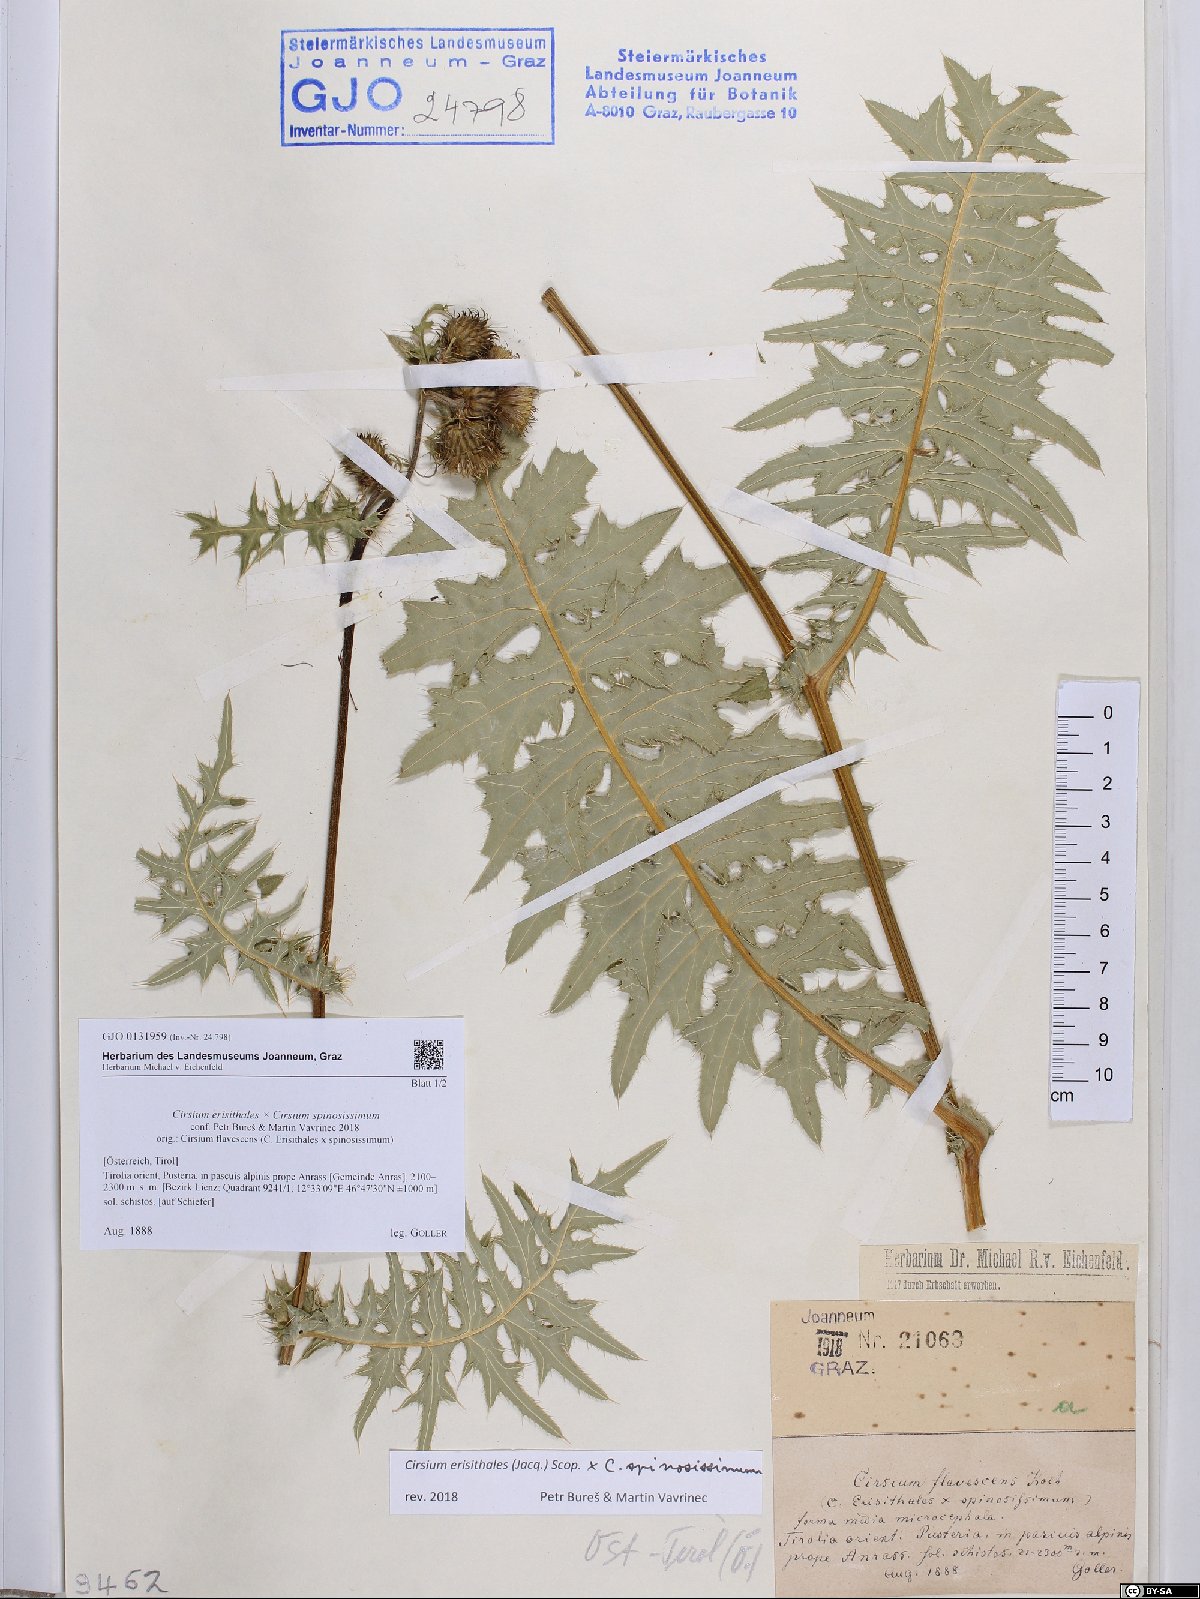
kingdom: Plantae
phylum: Tracheophyta
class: Magnoliopsida
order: Asterales
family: Asteraceae
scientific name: Asteraceae
